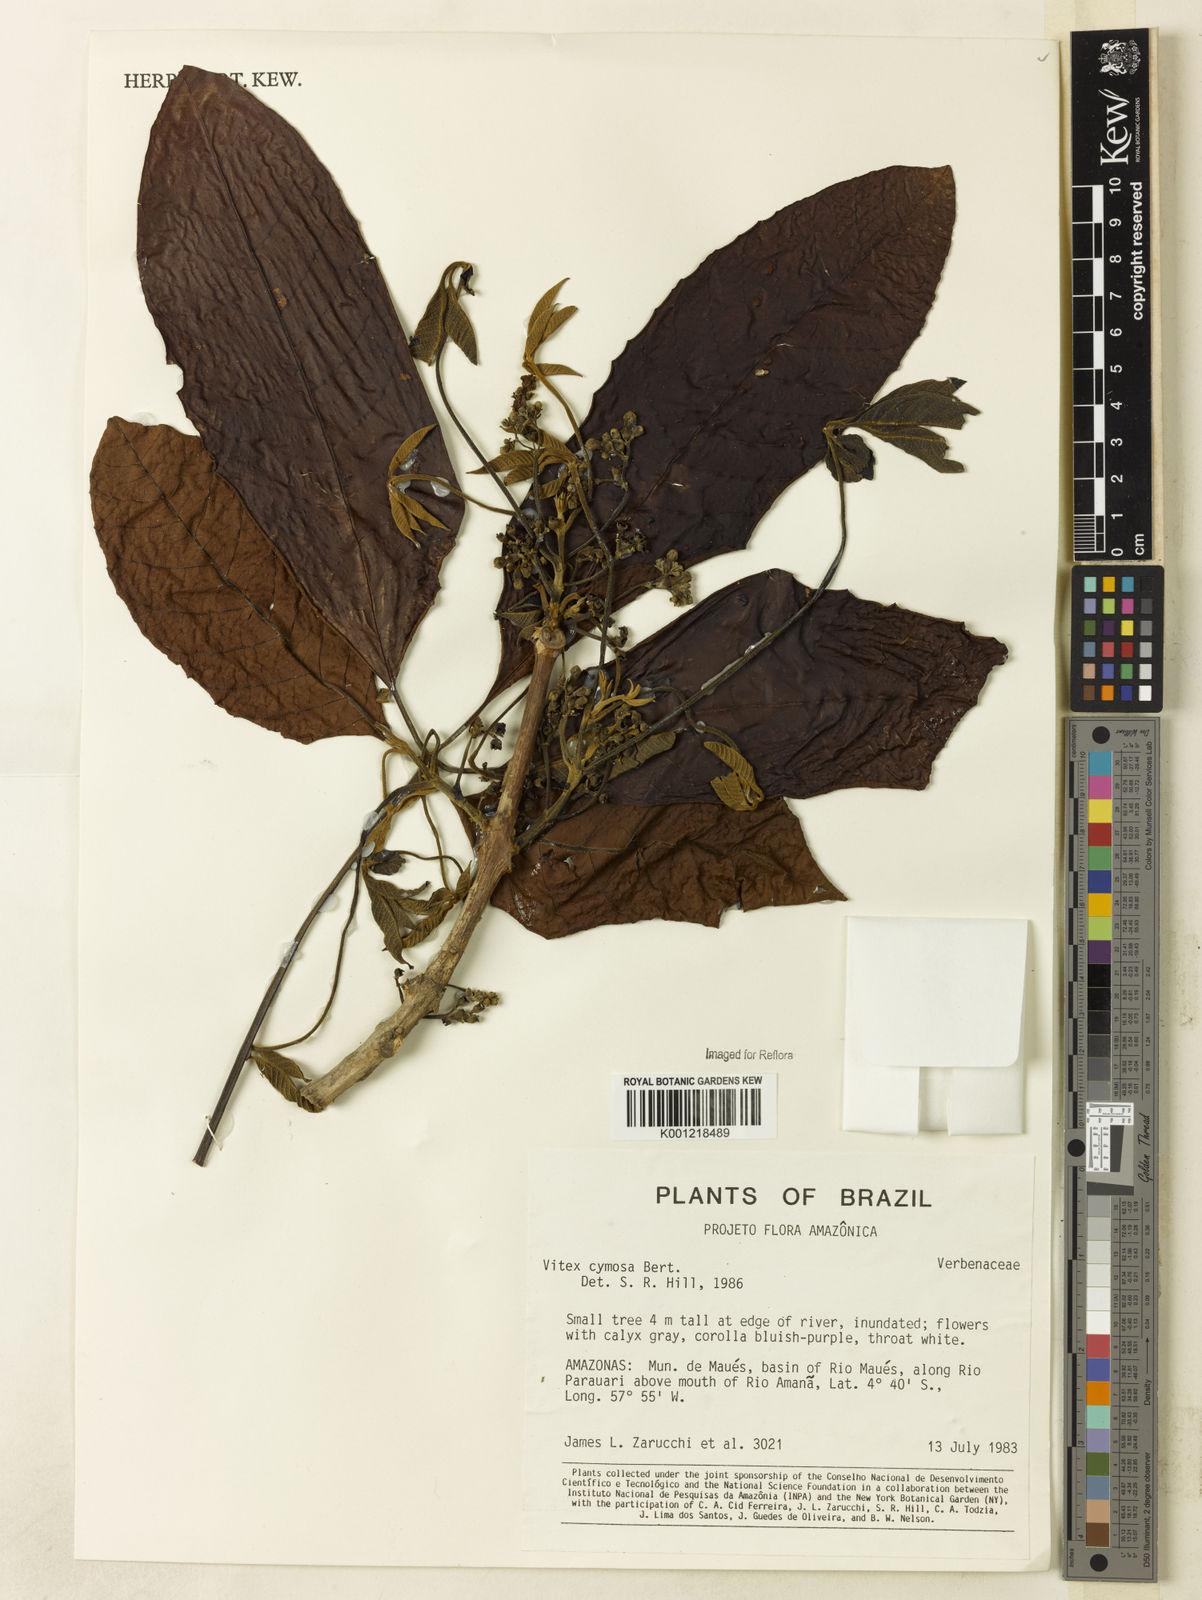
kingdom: Plantae
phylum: Tracheophyta
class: Magnoliopsida
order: Lamiales
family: Lamiaceae
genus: Vitex
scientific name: Vitex cymosa
